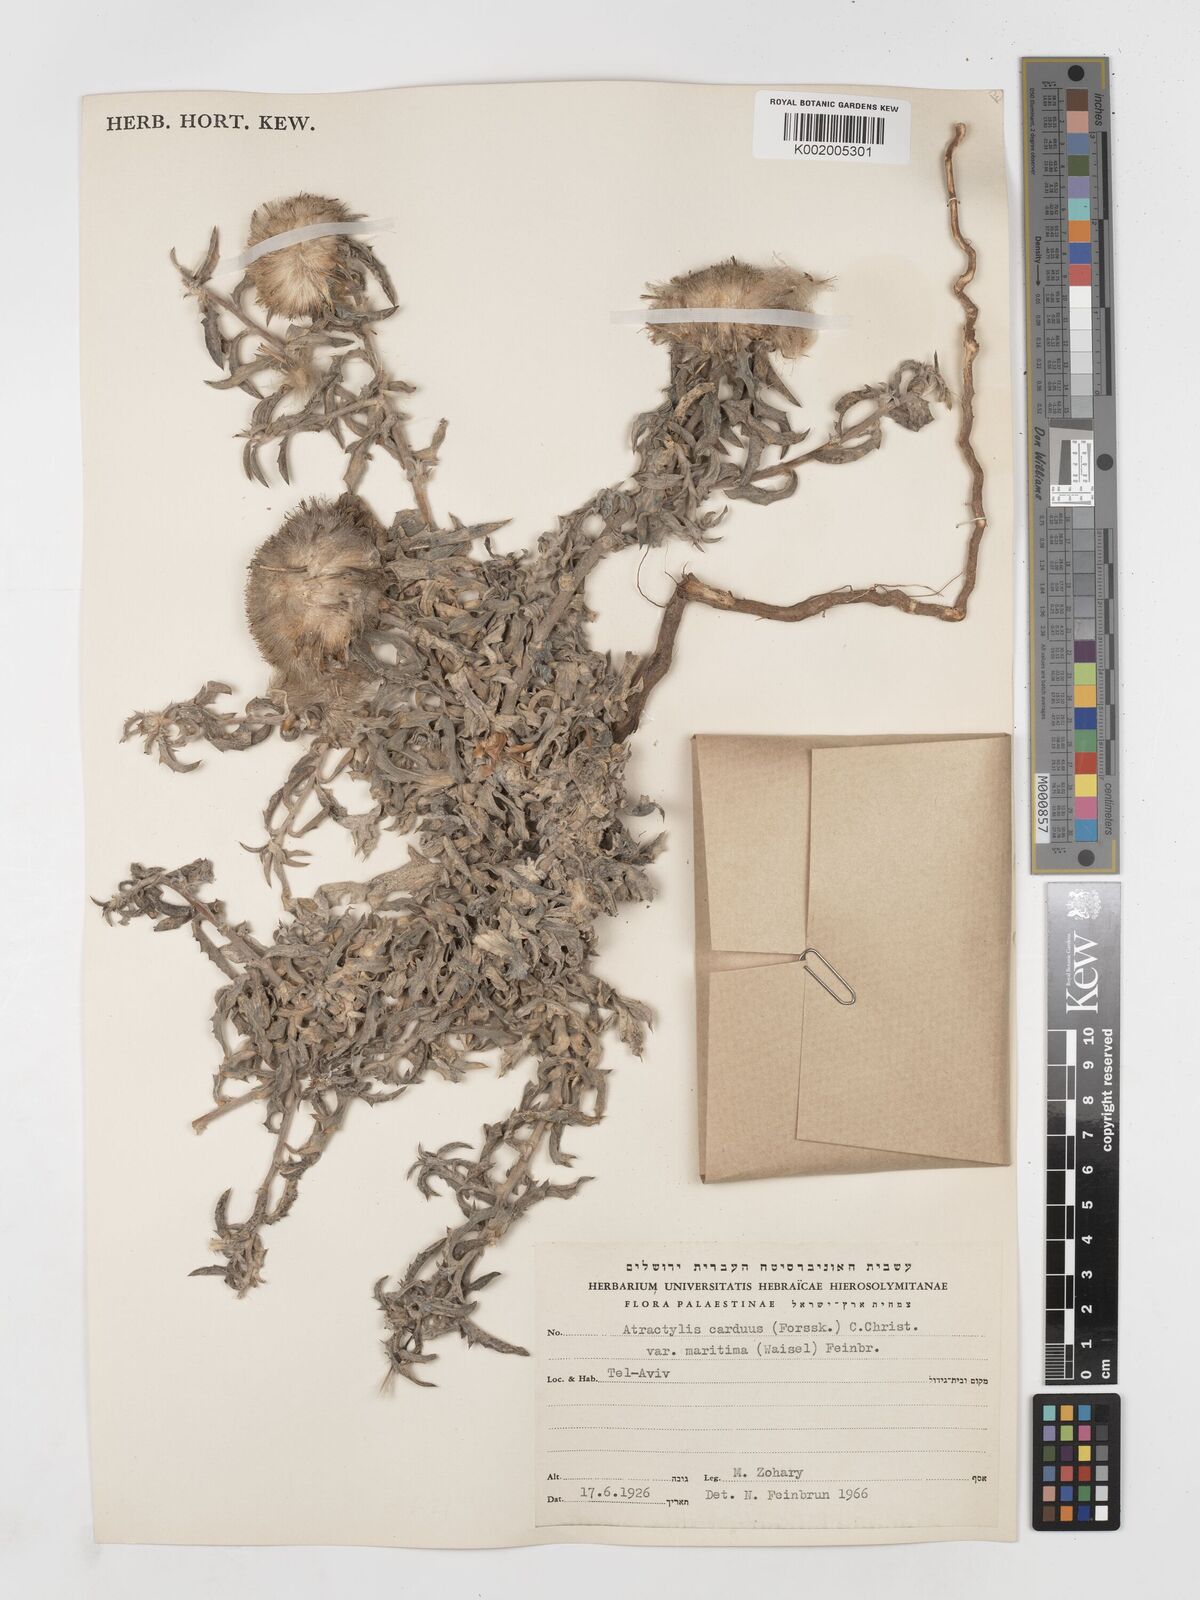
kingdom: Plantae
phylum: Tracheophyta
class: Magnoliopsida
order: Asterales
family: Asteraceae
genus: Atractylis
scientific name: Atractylis carduus
